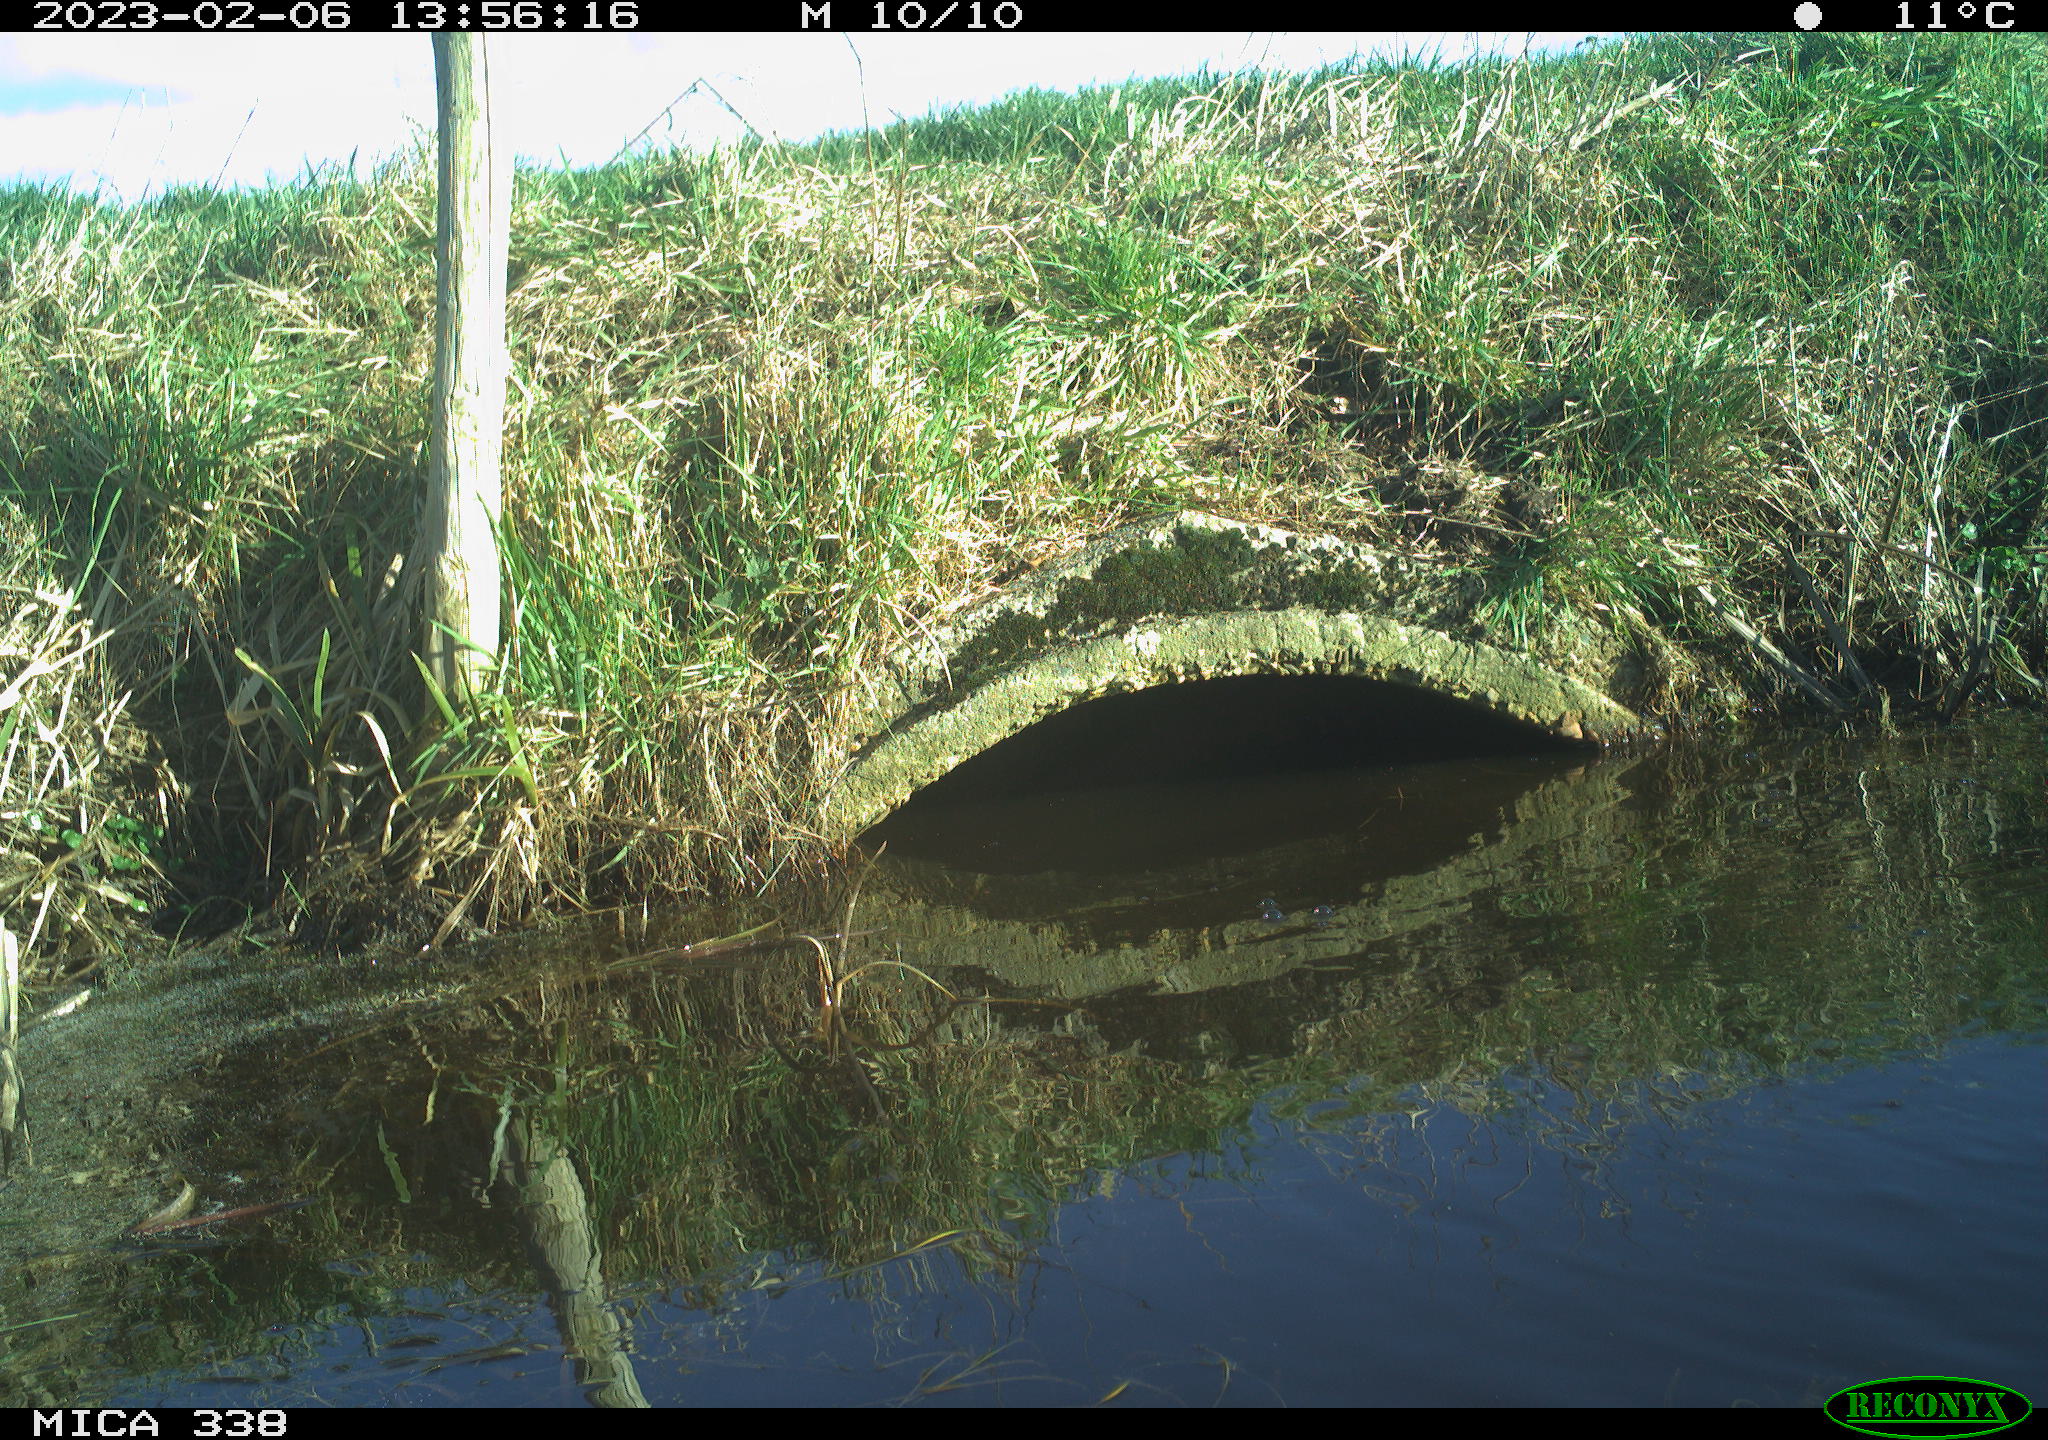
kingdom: Animalia
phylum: Chordata
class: Aves
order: Suliformes
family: Phalacrocoracidae
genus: Phalacrocorax
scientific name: Phalacrocorax carbo
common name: Great cormorant
